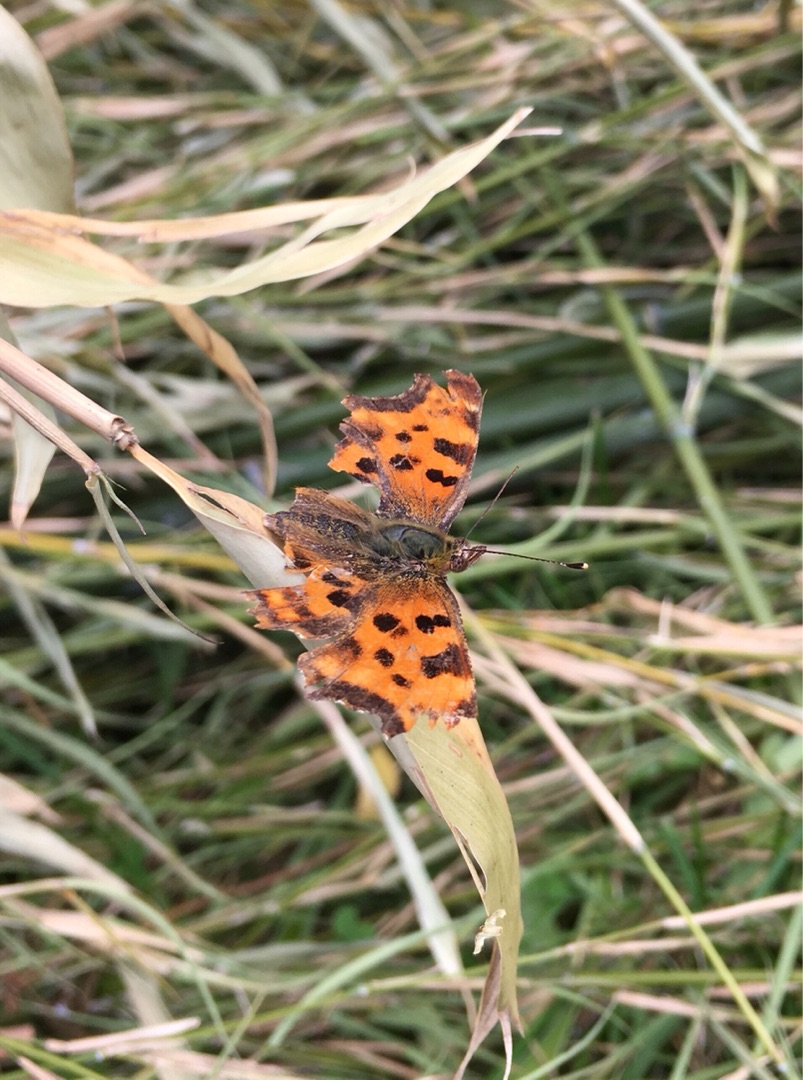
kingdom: Animalia
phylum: Arthropoda
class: Insecta
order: Lepidoptera
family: Nymphalidae
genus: Polygonia
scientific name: Polygonia c-album
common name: Det hvide C
